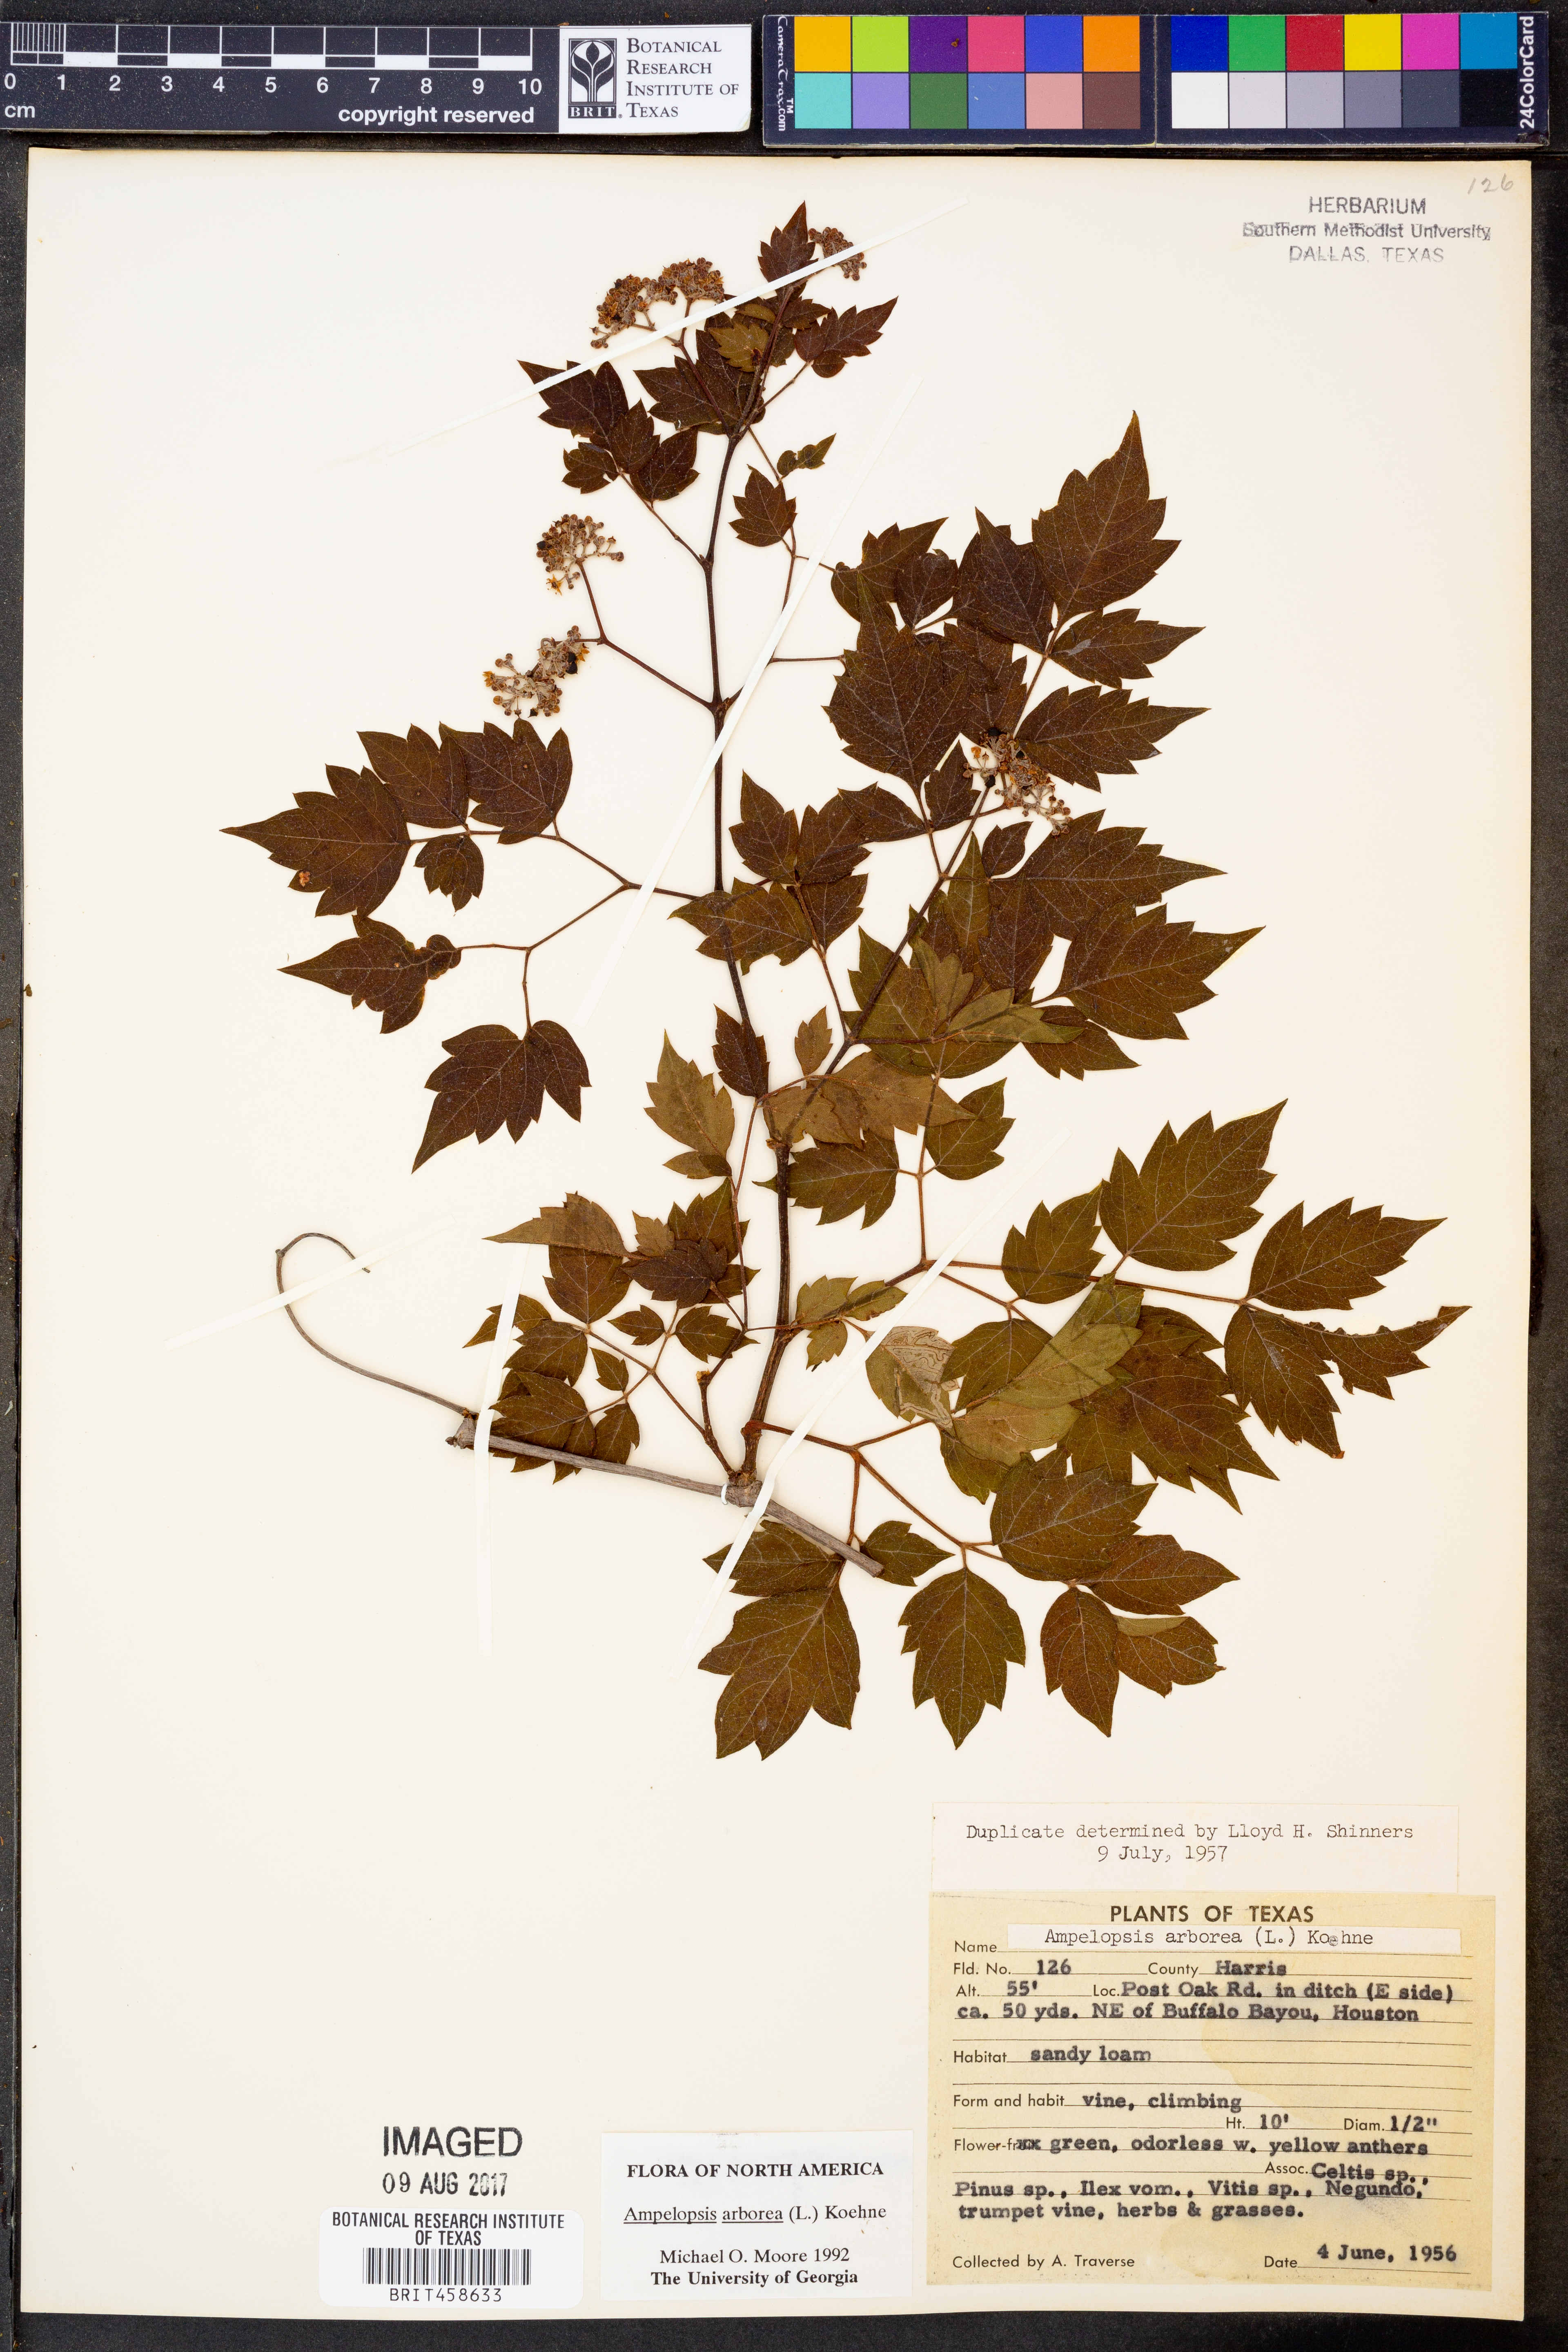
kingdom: Plantae
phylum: Tracheophyta
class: Magnoliopsida
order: Vitales
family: Vitaceae
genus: Nekemias
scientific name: Nekemias arborea
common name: Peppervine
